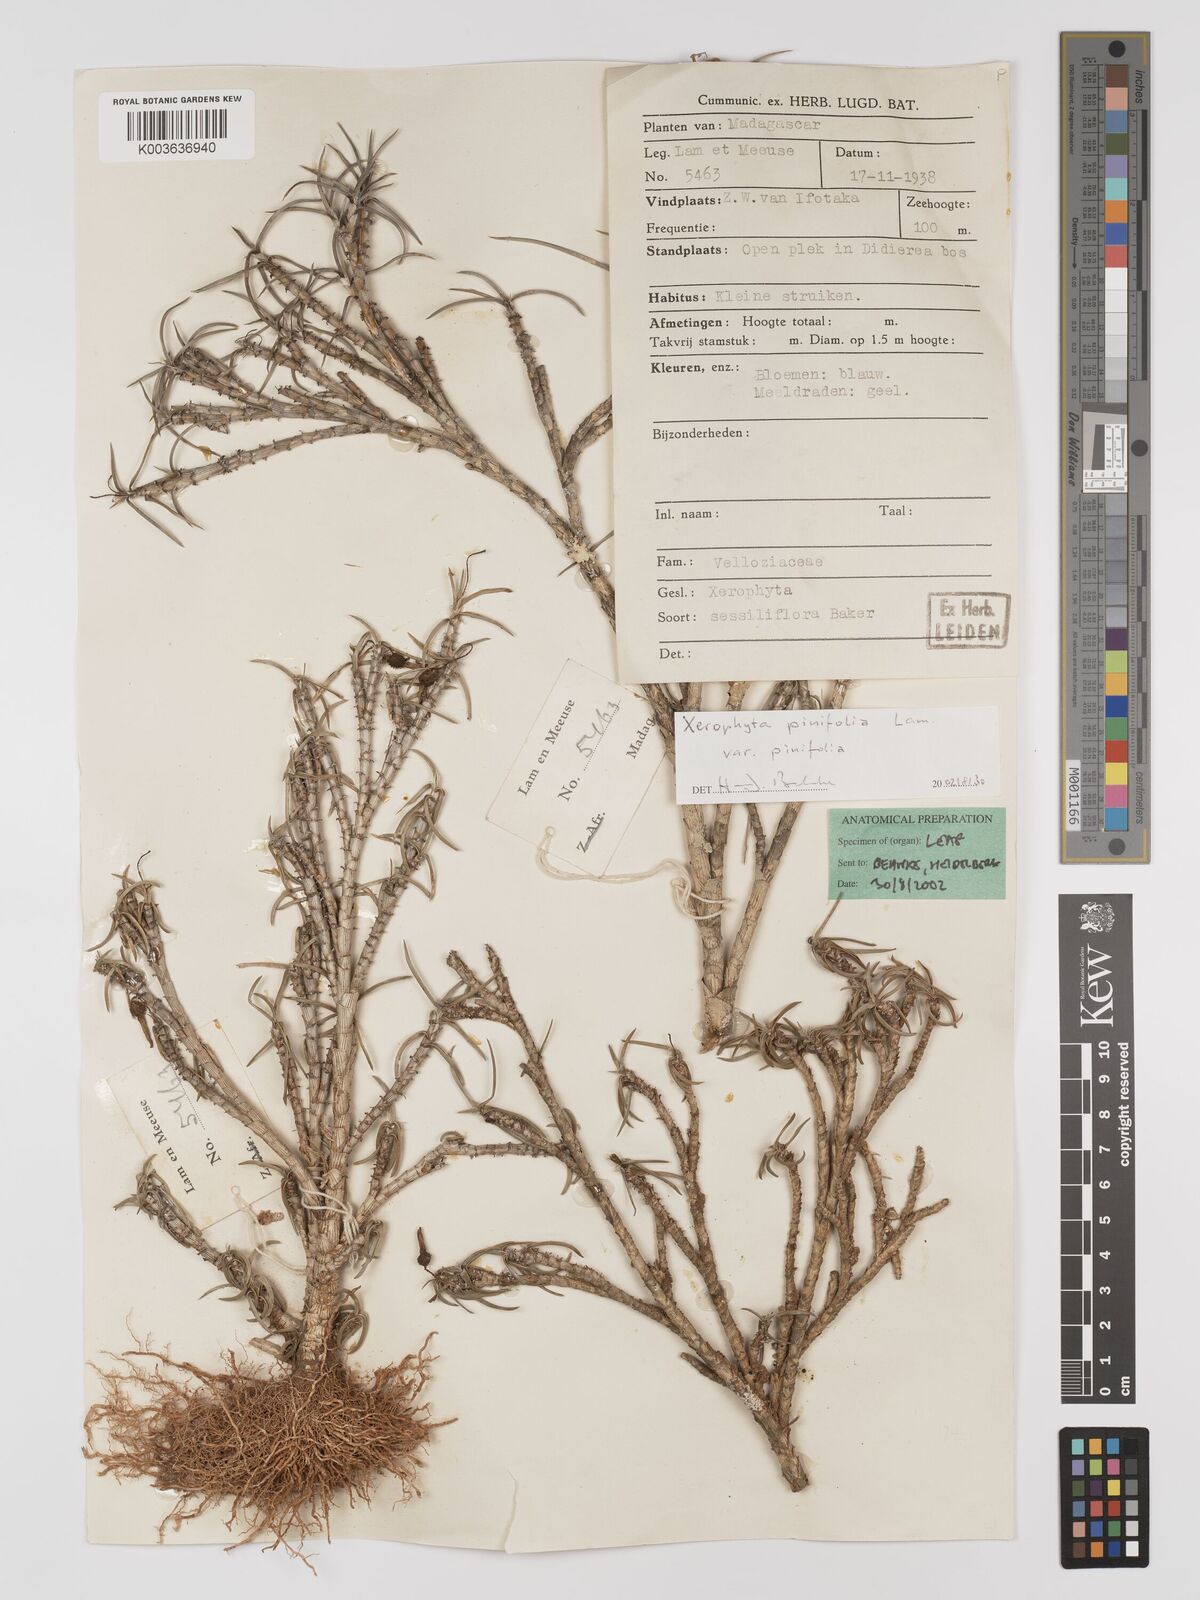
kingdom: Plantae
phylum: Tracheophyta
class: Liliopsida
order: Pandanales
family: Velloziaceae
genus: Xerophyta
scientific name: Xerophyta pinifolia
